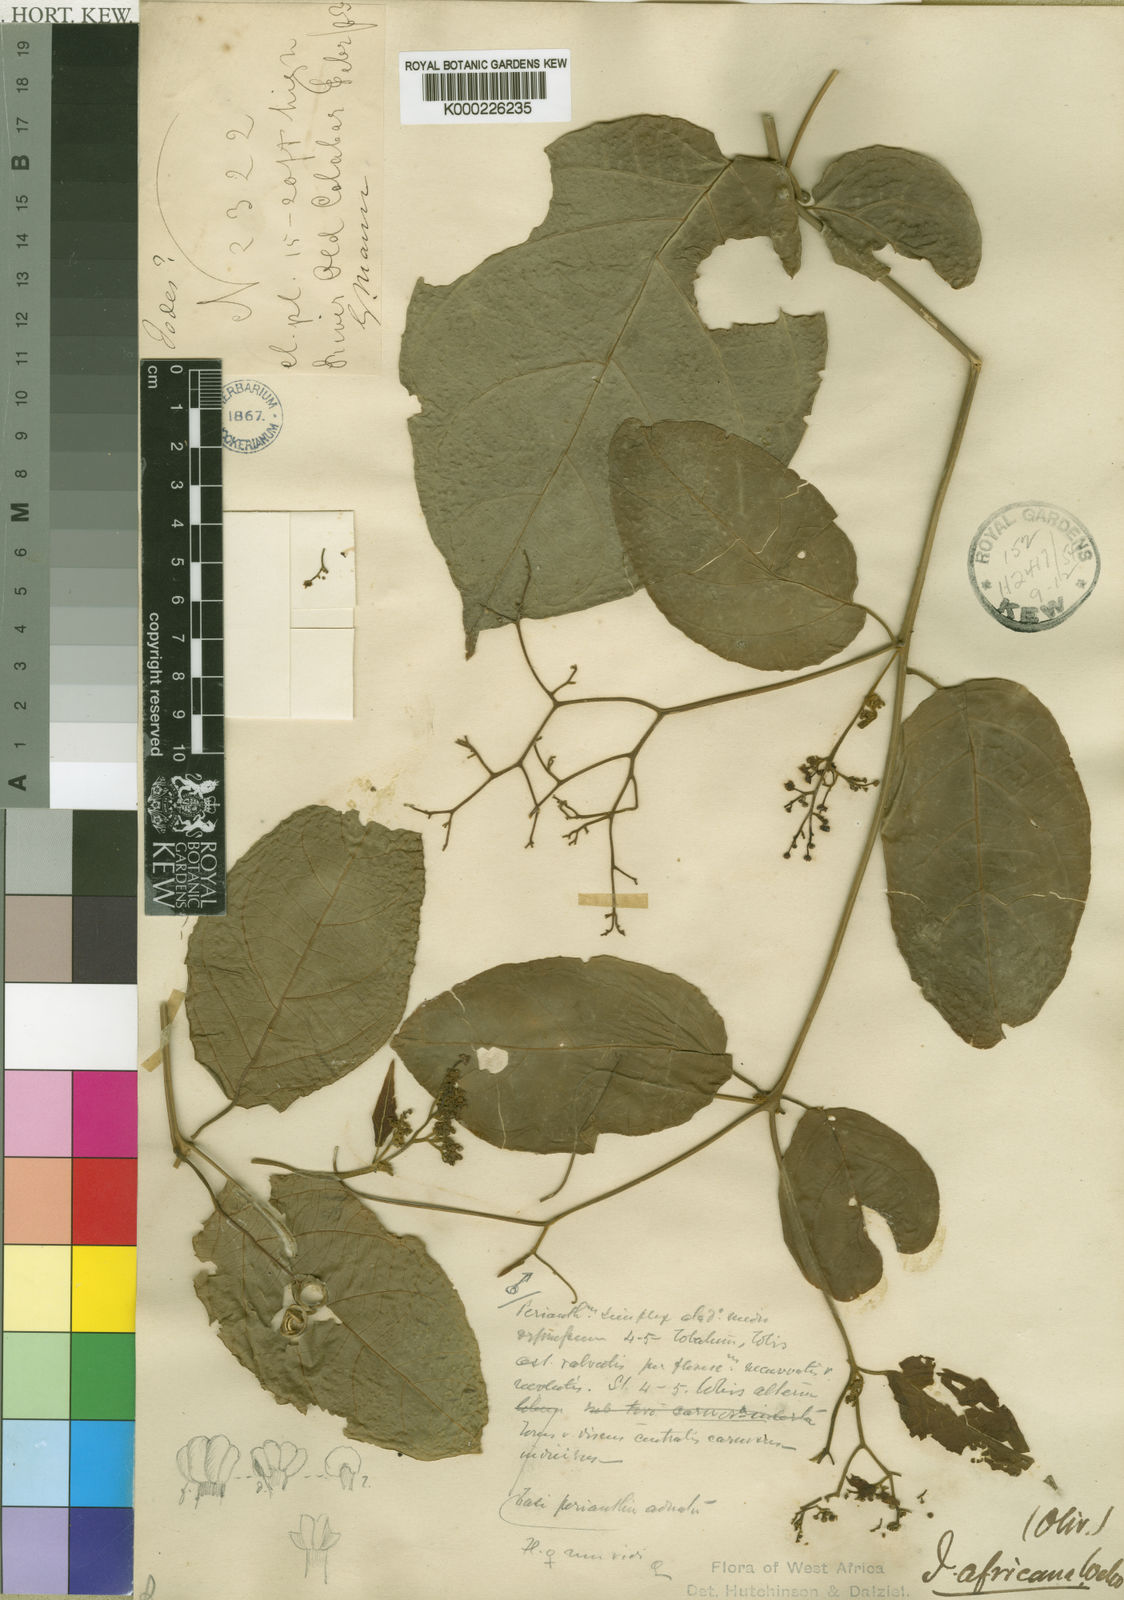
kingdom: Plantae
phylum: Tracheophyta
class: Magnoliopsida
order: Icacinales
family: Icacinaceae
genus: Iodes
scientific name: Iodes africana
